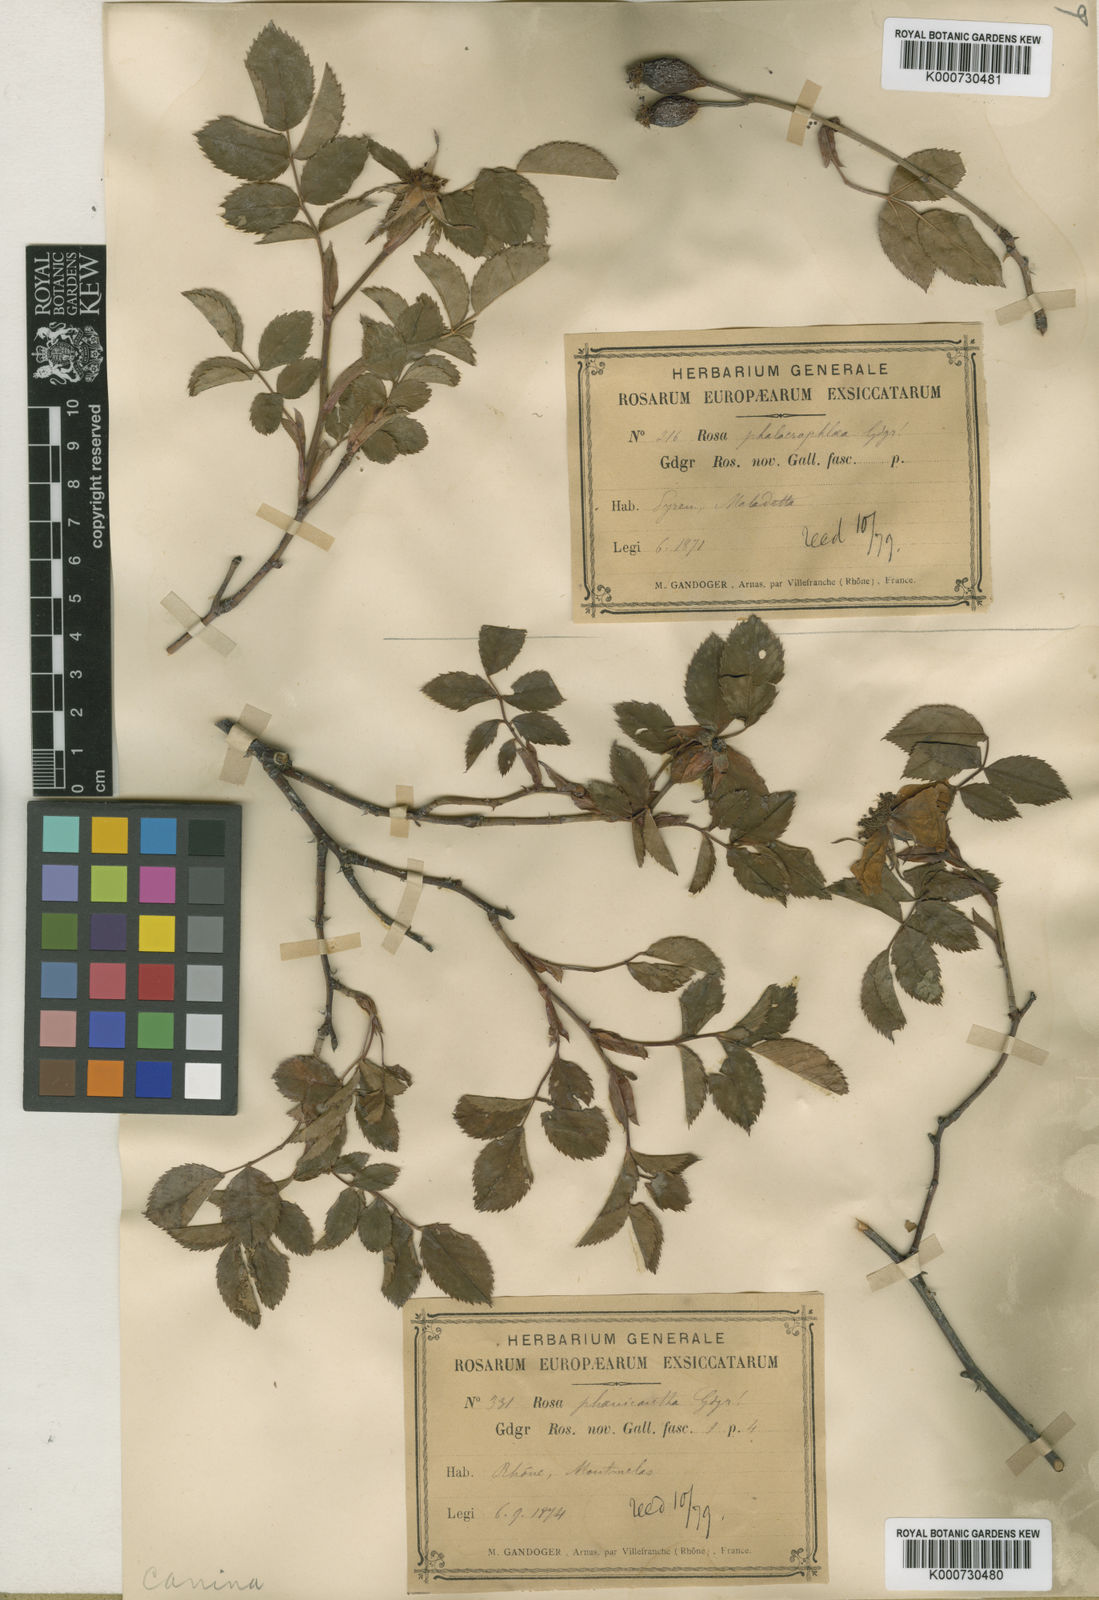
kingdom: Plantae
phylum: Tracheophyta
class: Magnoliopsida
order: Rosales
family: Rosaceae
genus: Rosa
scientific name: Rosa canina
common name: Dog rose
